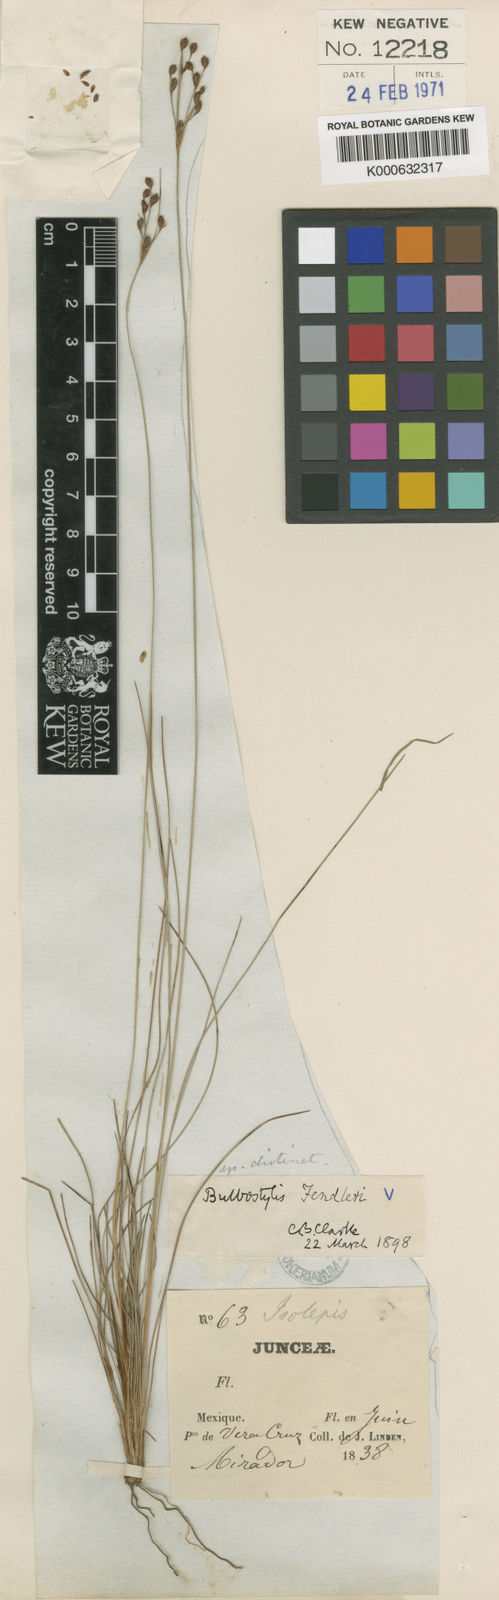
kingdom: Plantae
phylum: Tracheophyta
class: Liliopsida
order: Poales
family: Cyperaceae
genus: Bulbostylis
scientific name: Bulbostylis
